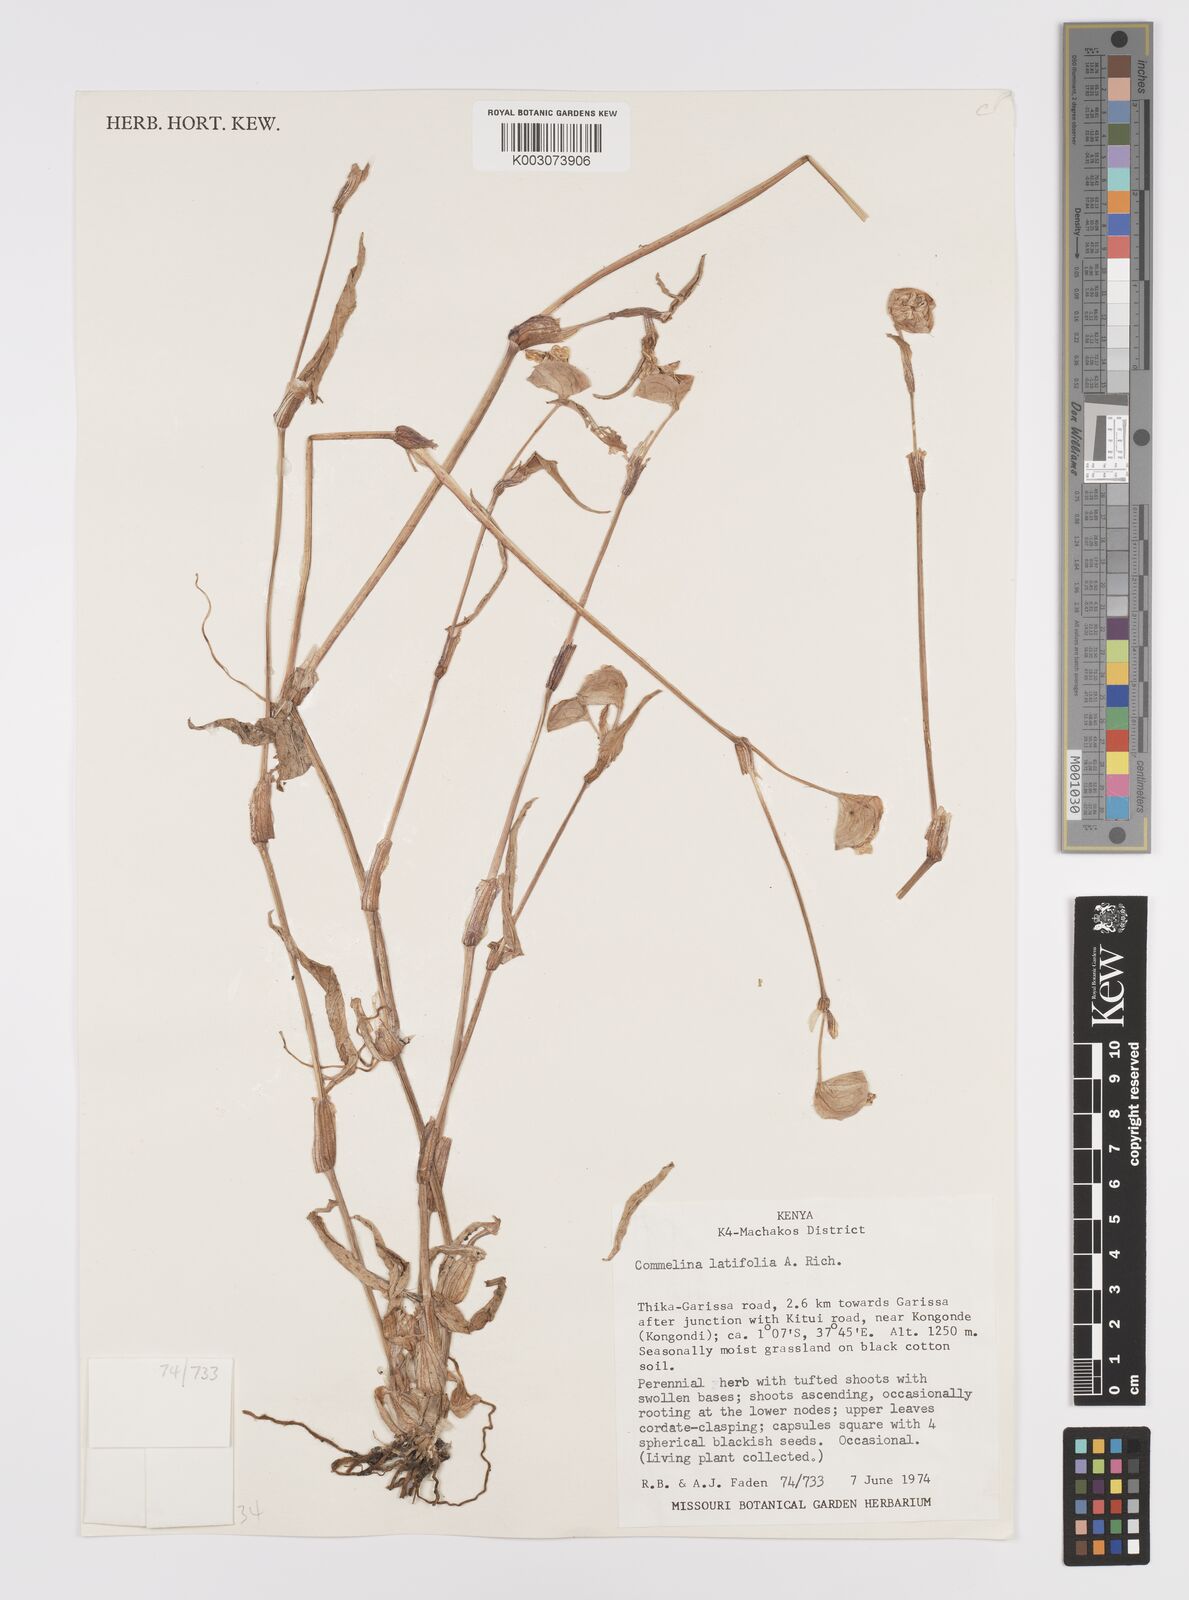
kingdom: Plantae
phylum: Tracheophyta
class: Liliopsida
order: Commelinales
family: Commelinaceae
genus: Commelina
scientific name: Commelina latifolia
